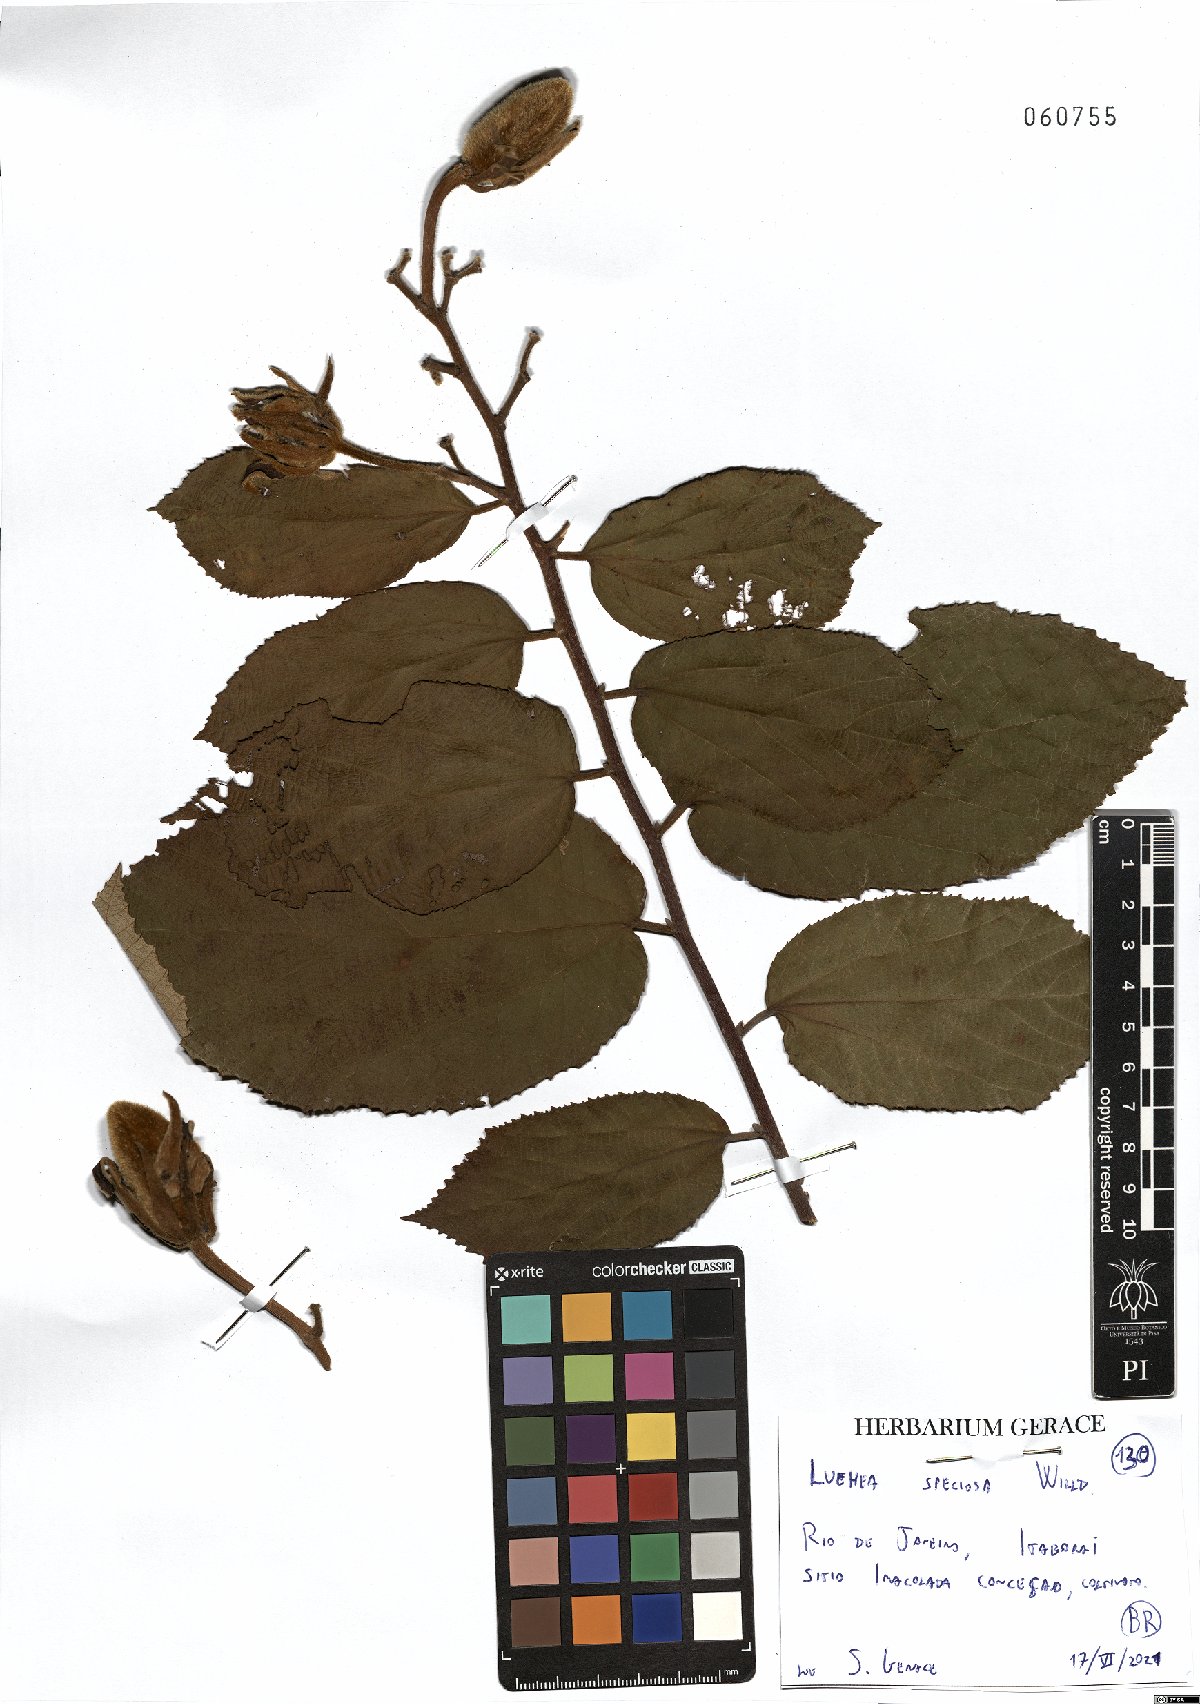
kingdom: Plantae
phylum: Tracheophyta
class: Magnoliopsida
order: Malvales
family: Malvaceae
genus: Luehea
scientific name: Luehea speciosa
